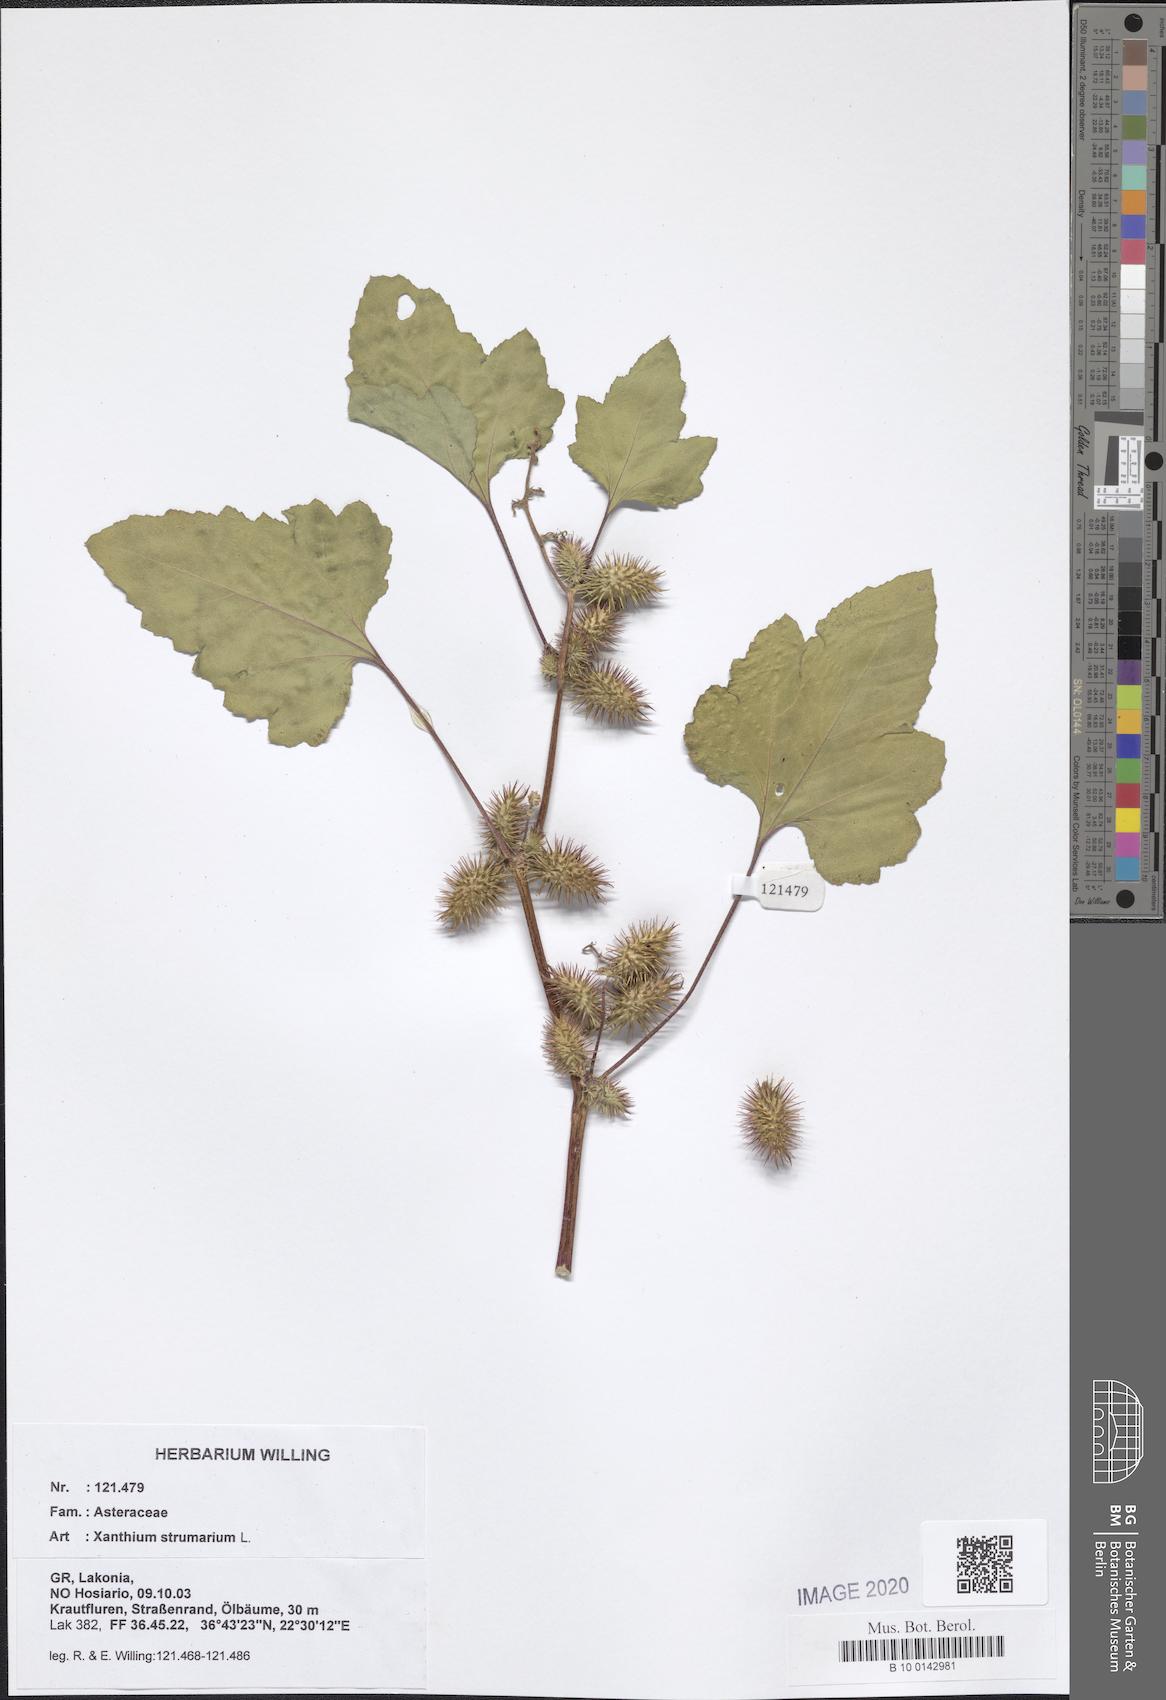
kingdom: Plantae
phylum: Tracheophyta
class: Magnoliopsida
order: Asterales
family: Asteraceae
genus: Xanthium
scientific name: Xanthium strumarium
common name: Rough cocklebur
